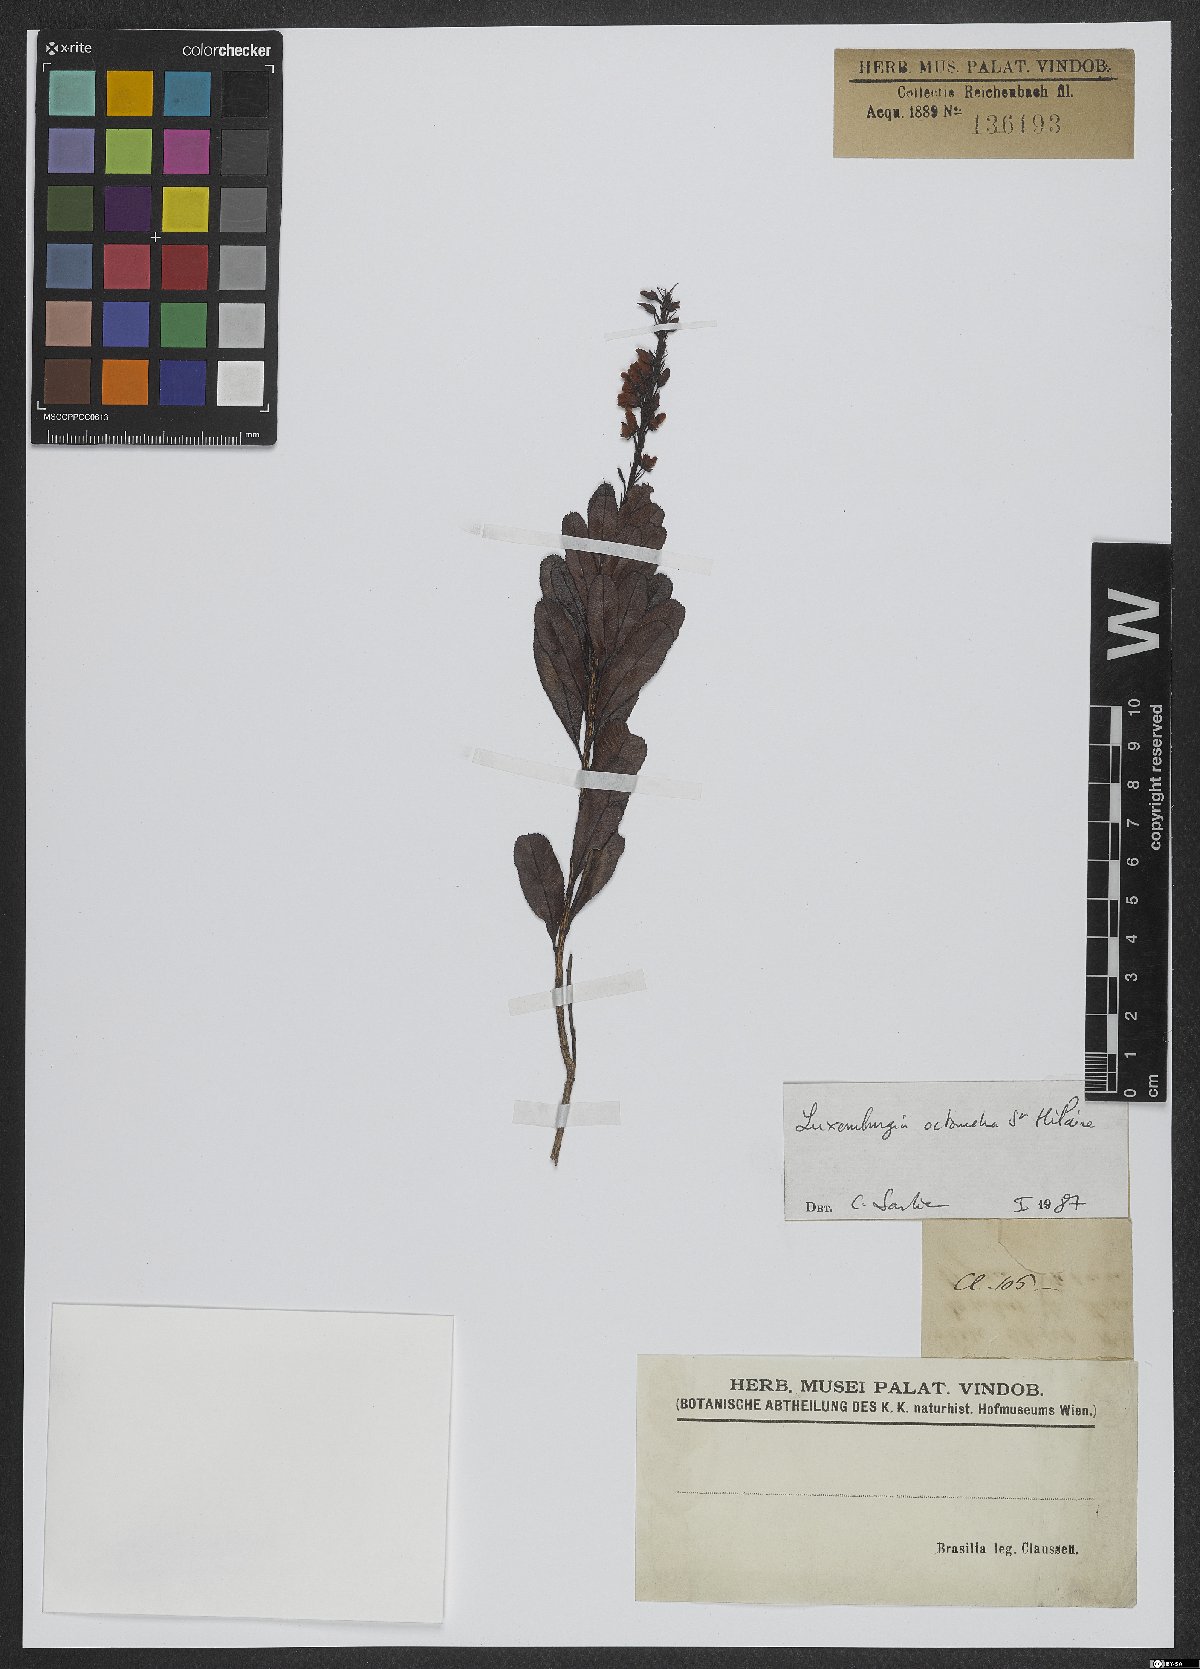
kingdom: Plantae
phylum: Tracheophyta
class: Magnoliopsida
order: Malpighiales
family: Ochnaceae
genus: Luxemburgia
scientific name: Luxemburgia octandra
